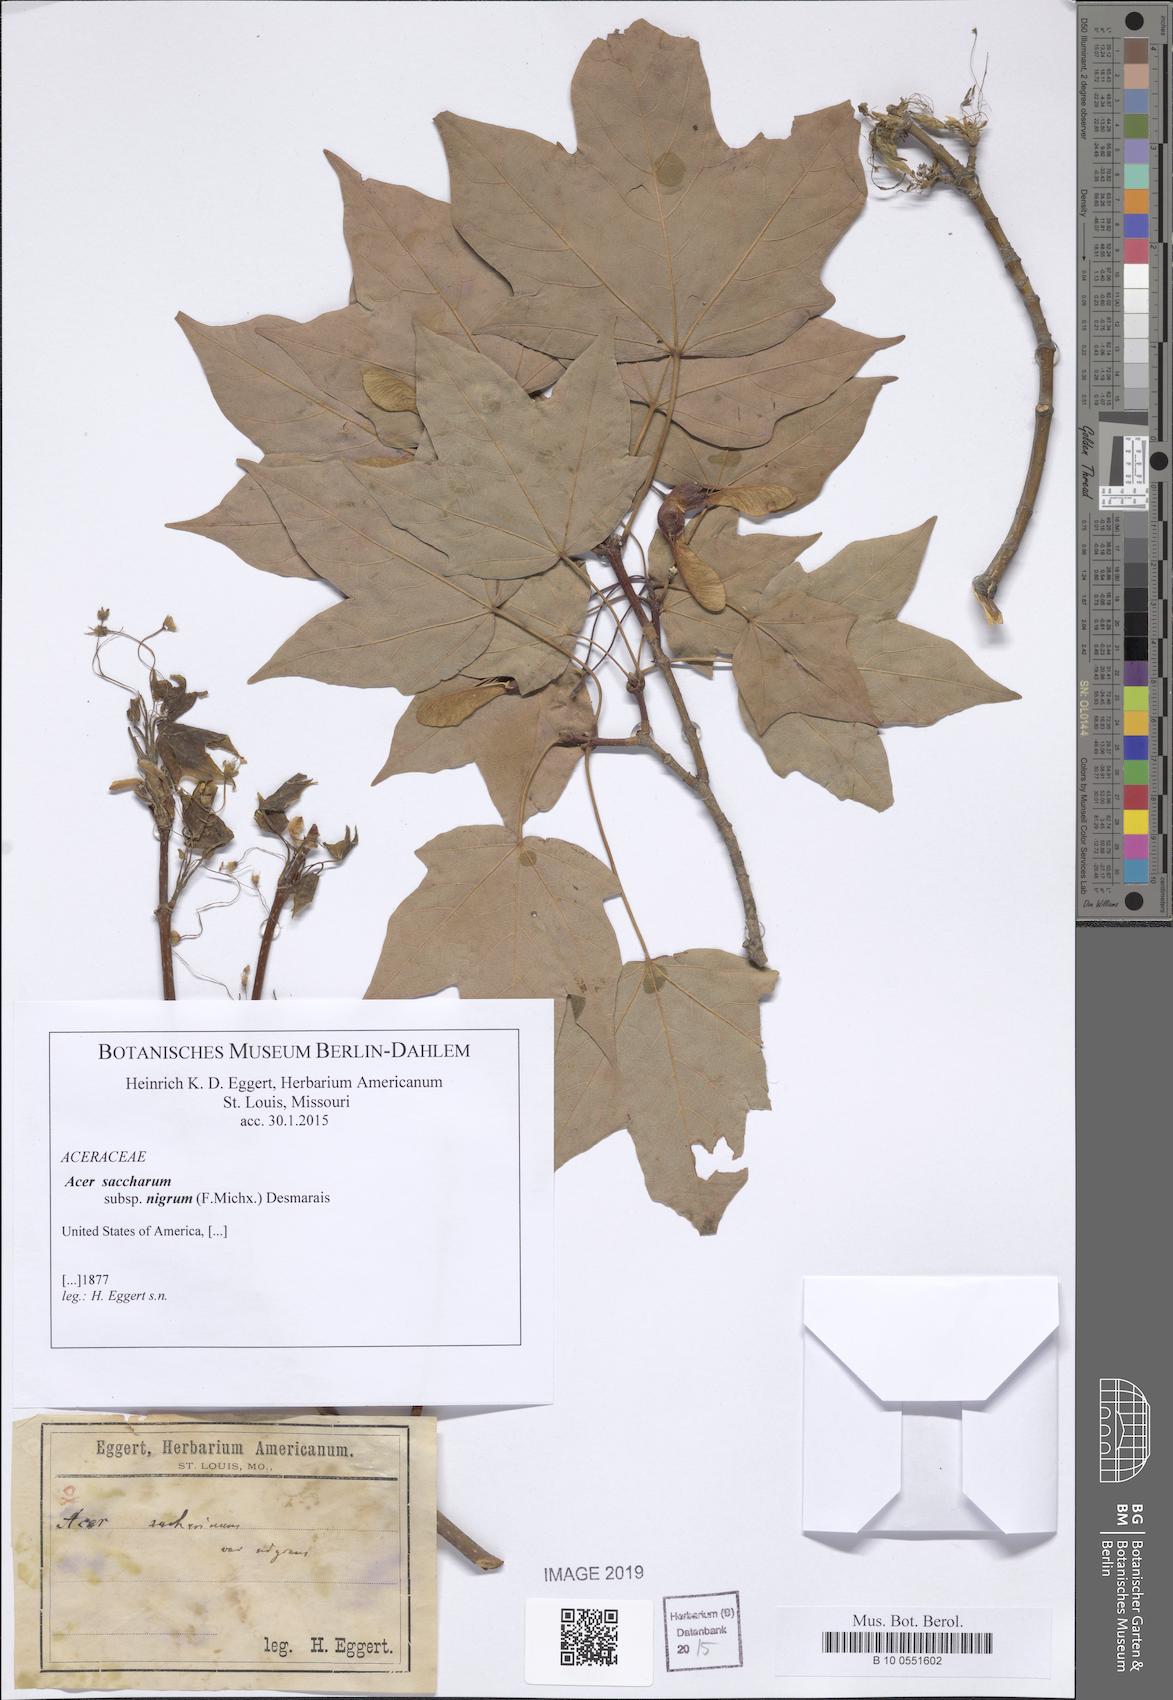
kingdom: Plantae
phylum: Tracheophyta
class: Magnoliopsida
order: Sapindales
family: Sapindaceae
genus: Acer
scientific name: Acer nigrum
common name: Black maple
